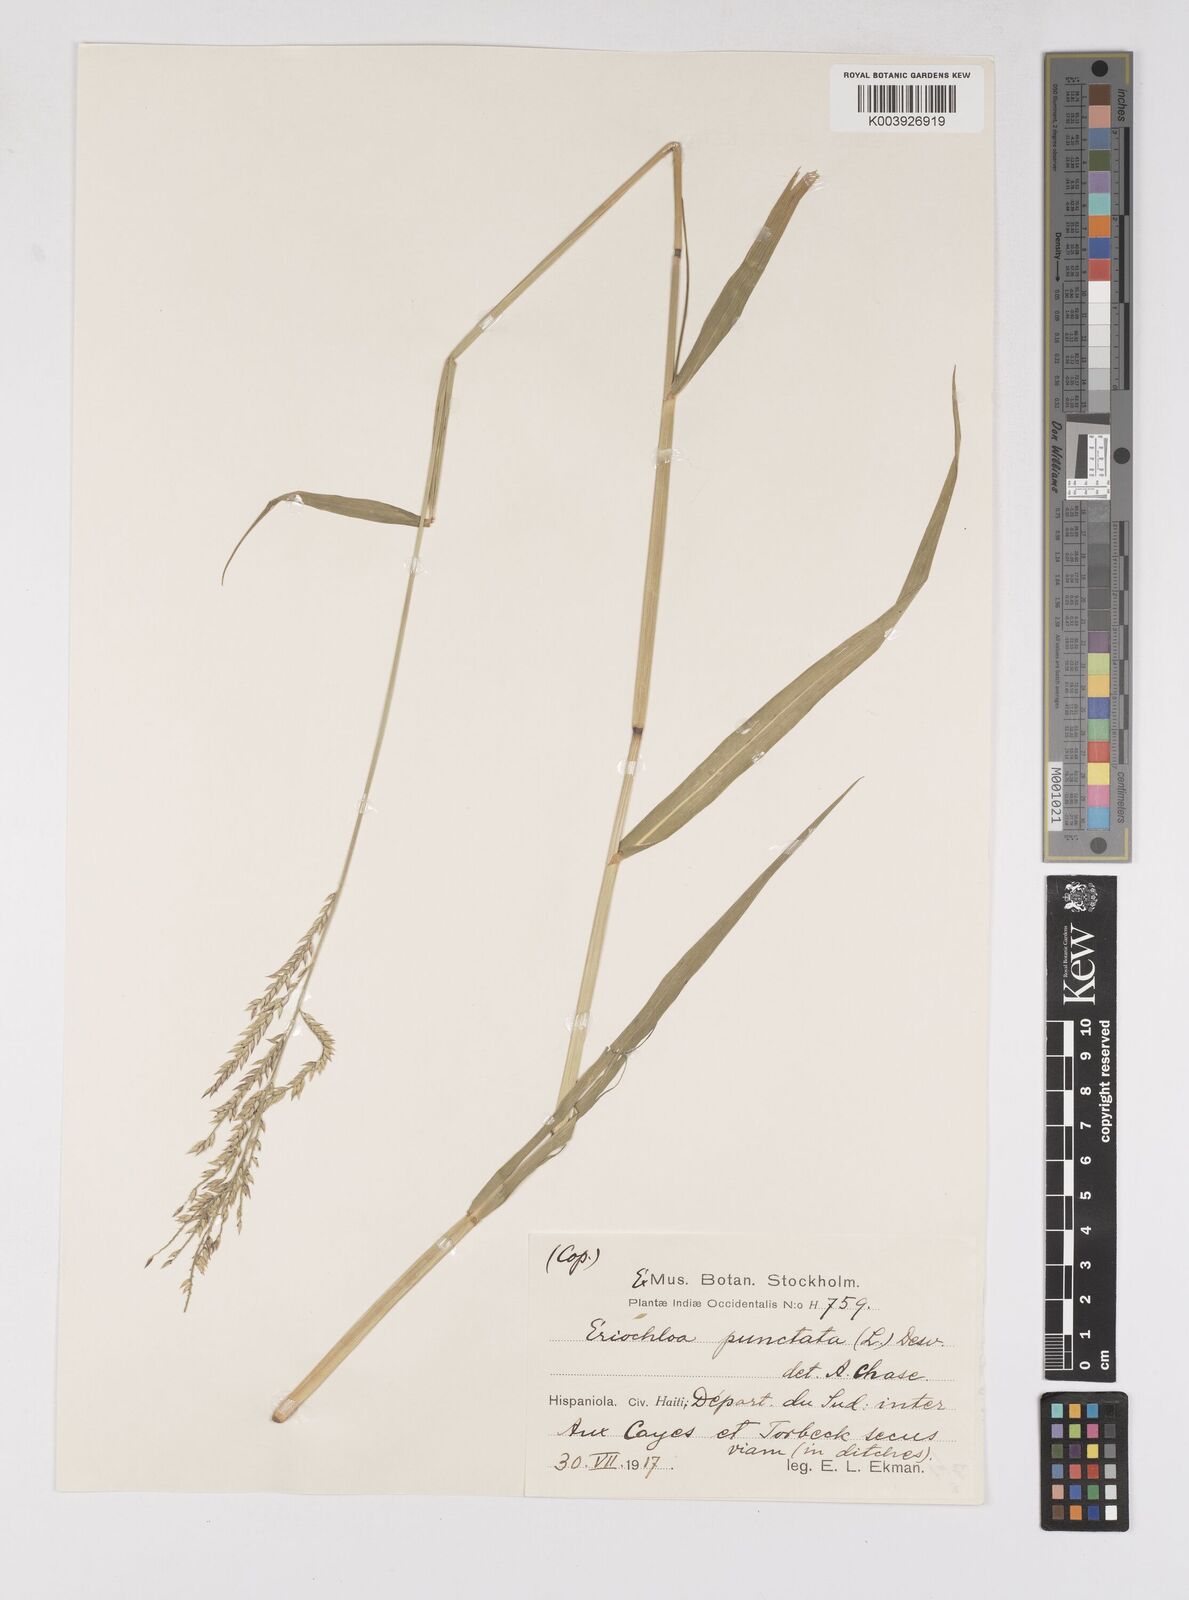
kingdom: Plantae
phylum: Tracheophyta
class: Liliopsida
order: Poales
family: Poaceae
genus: Eriochloa
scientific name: Eriochloa punctata
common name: Louisiana cupgrass
